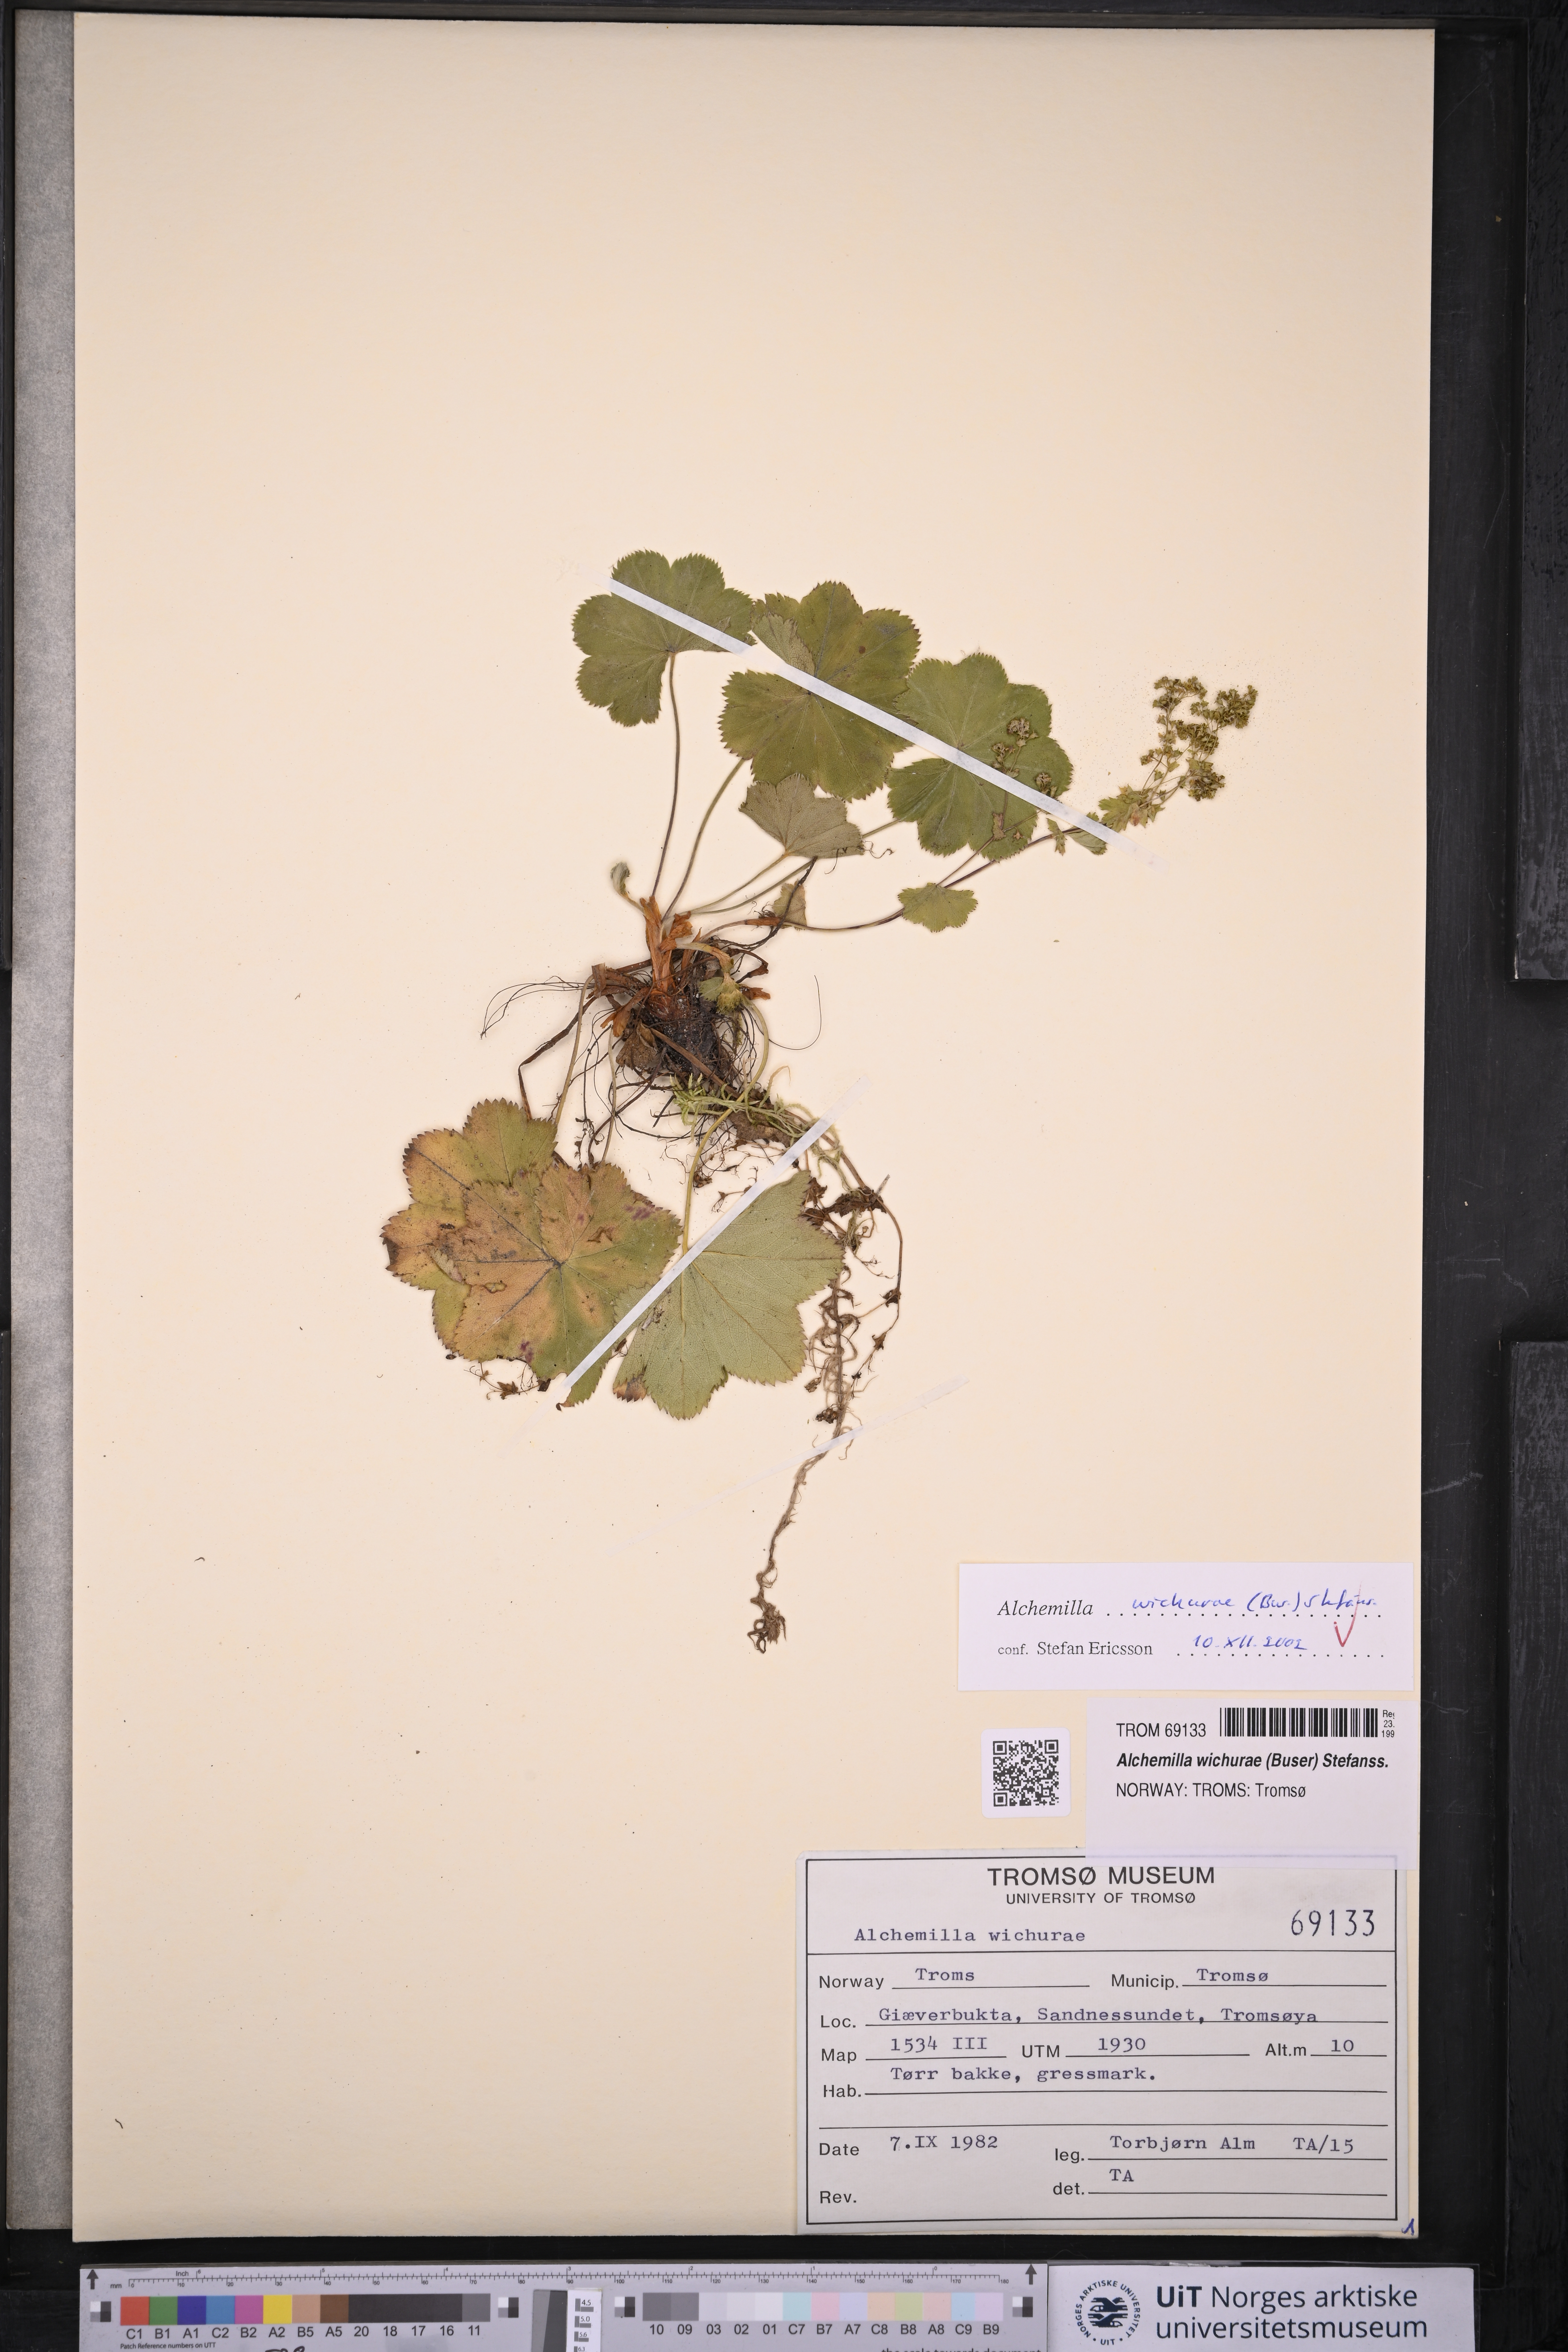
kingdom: Plantae
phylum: Tracheophyta
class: Magnoliopsida
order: Rosales
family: Rosaceae
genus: Alchemilla
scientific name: Alchemilla wichurae
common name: Rock lady's mantle
